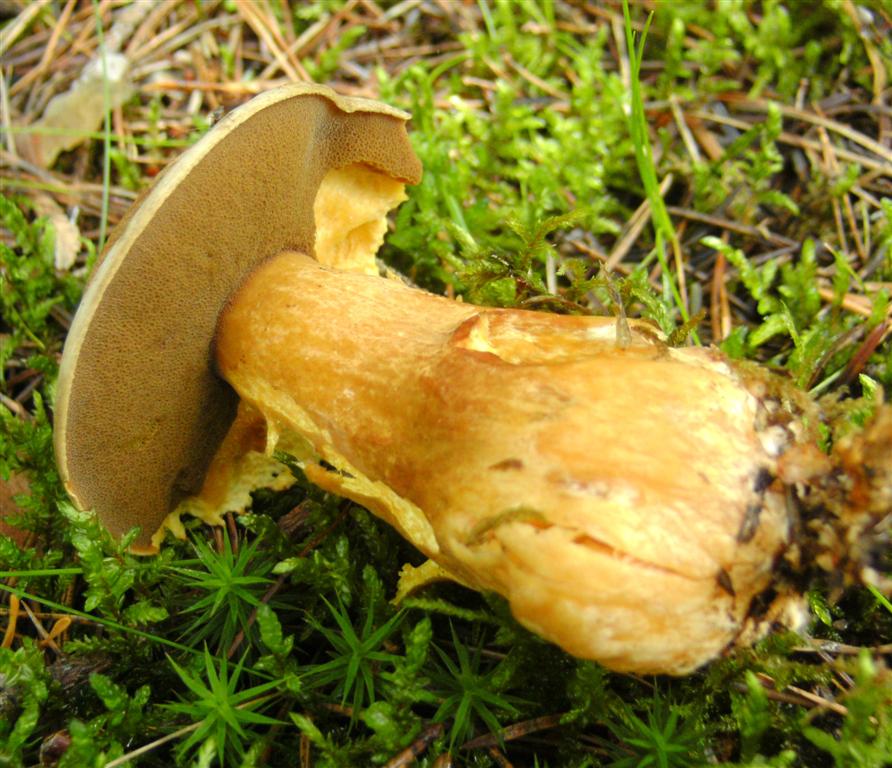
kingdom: Fungi
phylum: Basidiomycota
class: Agaricomycetes
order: Boletales
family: Suillaceae
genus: Suillus
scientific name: Suillus variegatus
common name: broget slimrørhat
